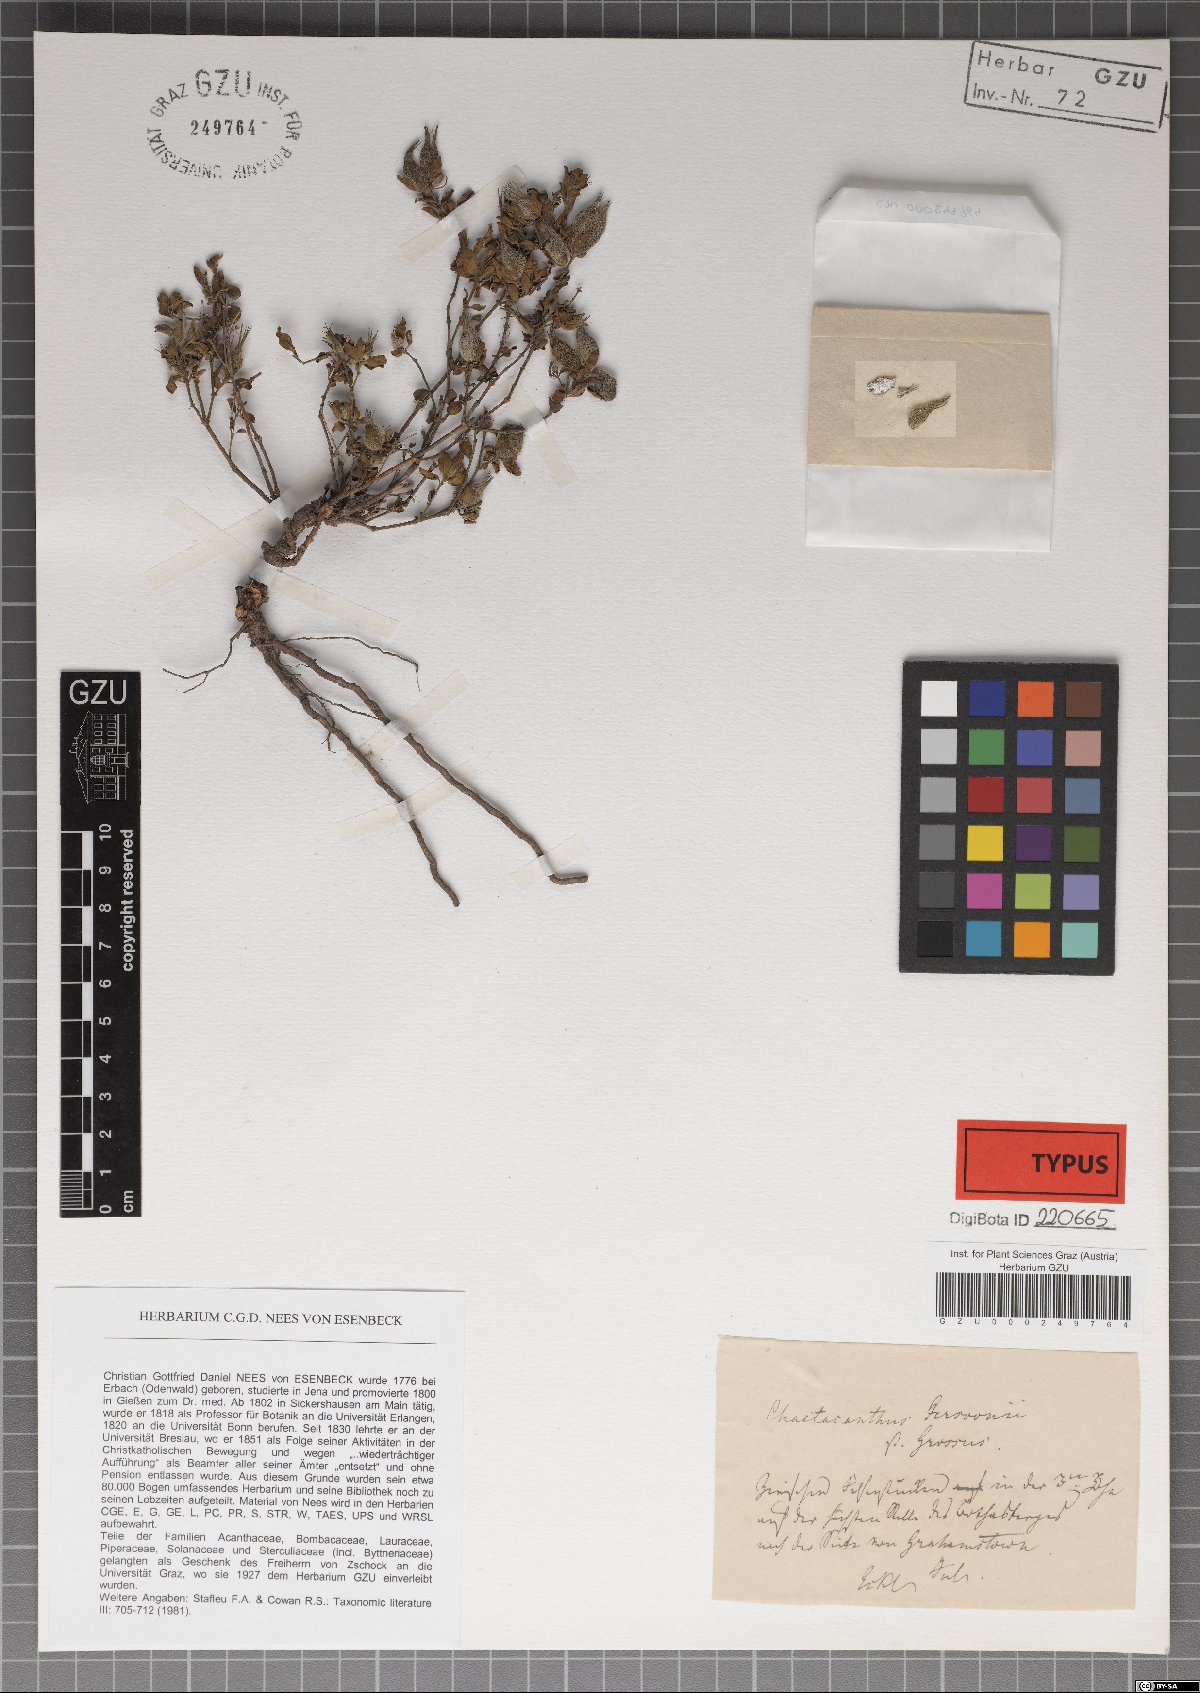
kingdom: Plantae
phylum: Tracheophyta
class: Magnoliopsida
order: Lamiales
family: Acanthaceae
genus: Dyschoriste
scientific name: Dyschoriste setigera
